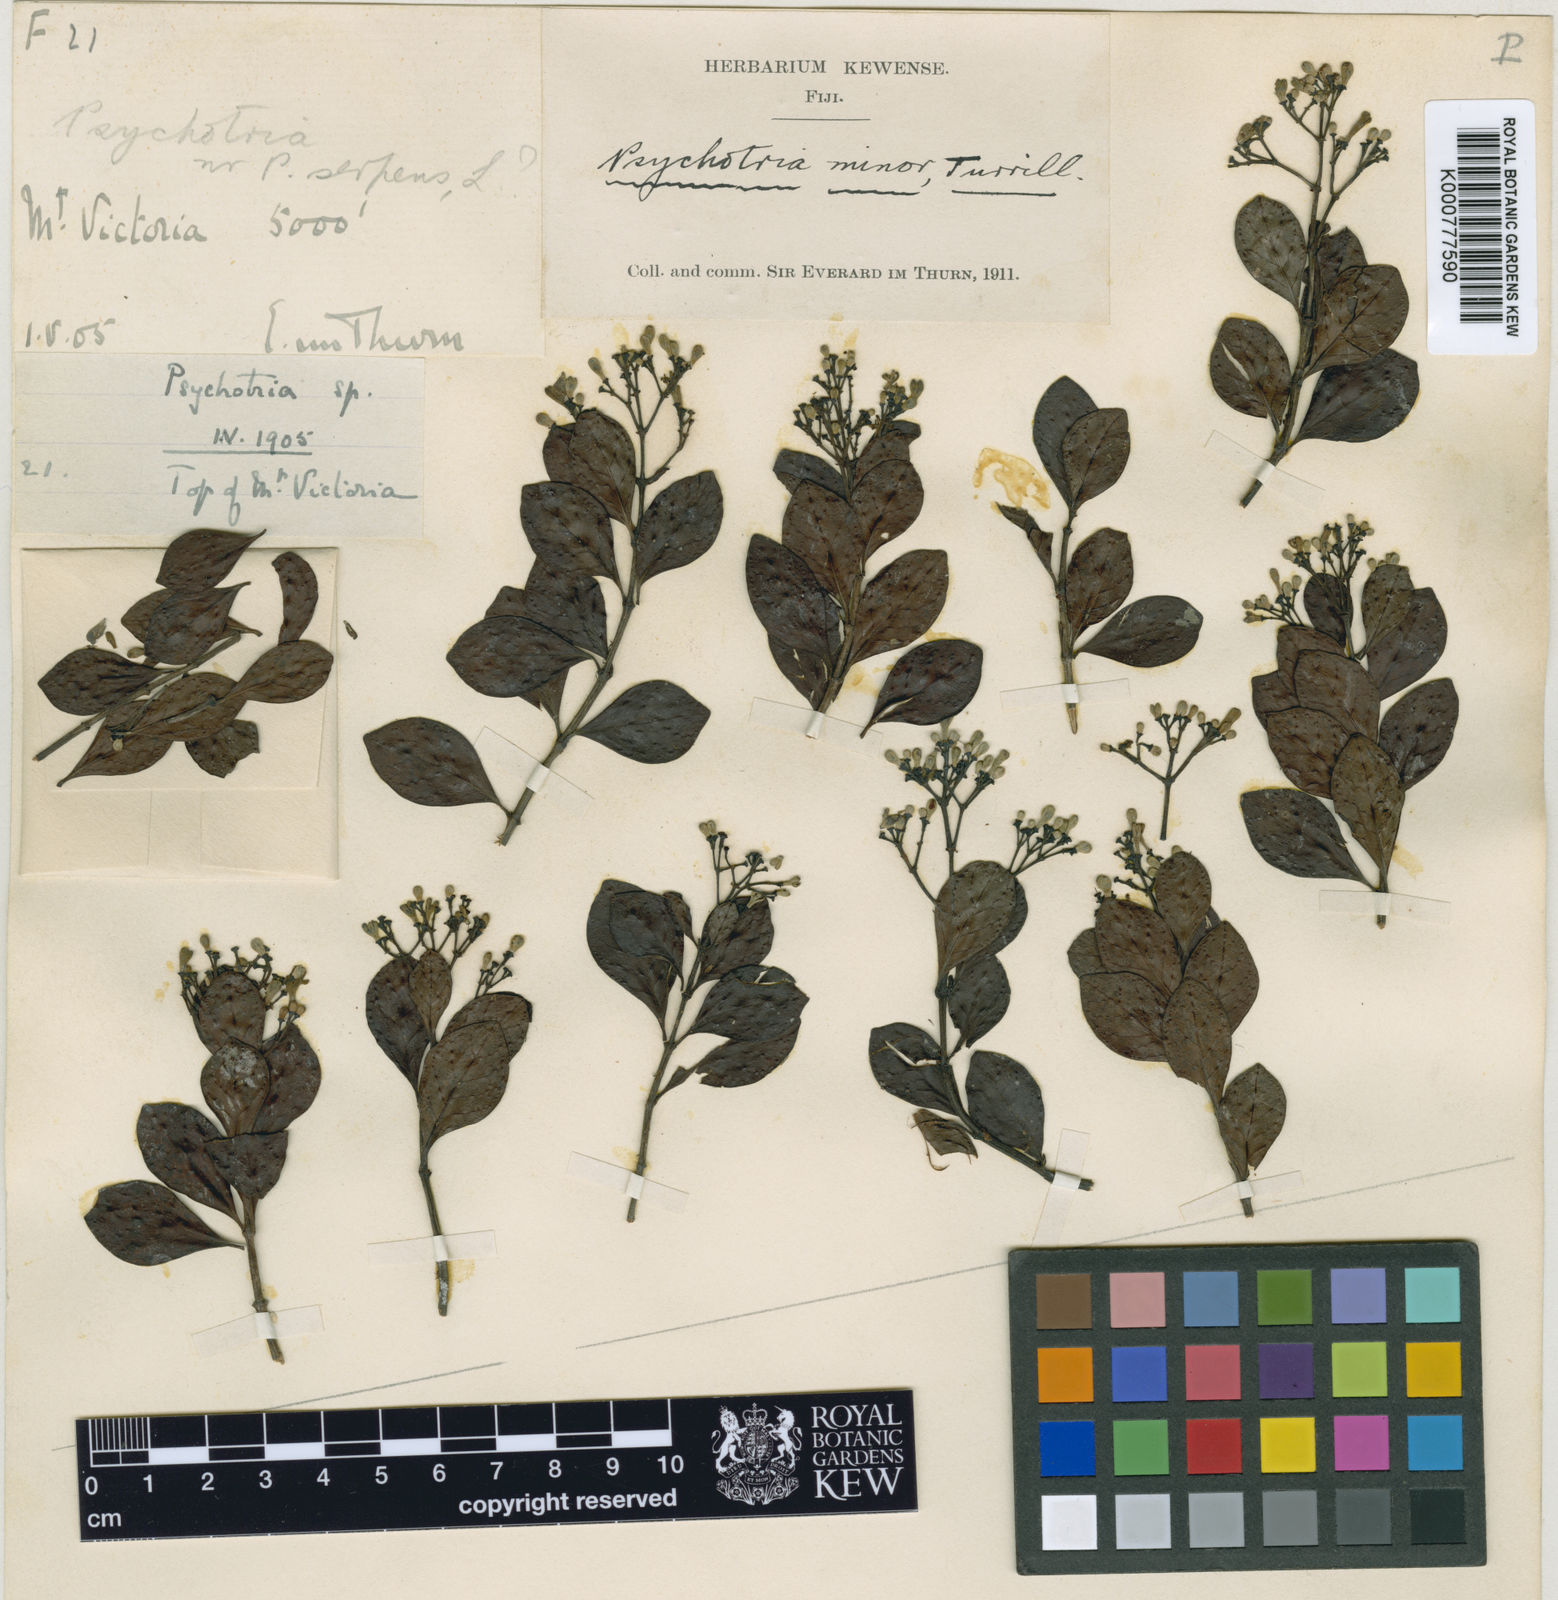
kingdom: Plantae
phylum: Tracheophyta
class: Magnoliopsida
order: Gentianales
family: Rubiaceae
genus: Psychotria
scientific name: Psychotria serpens
